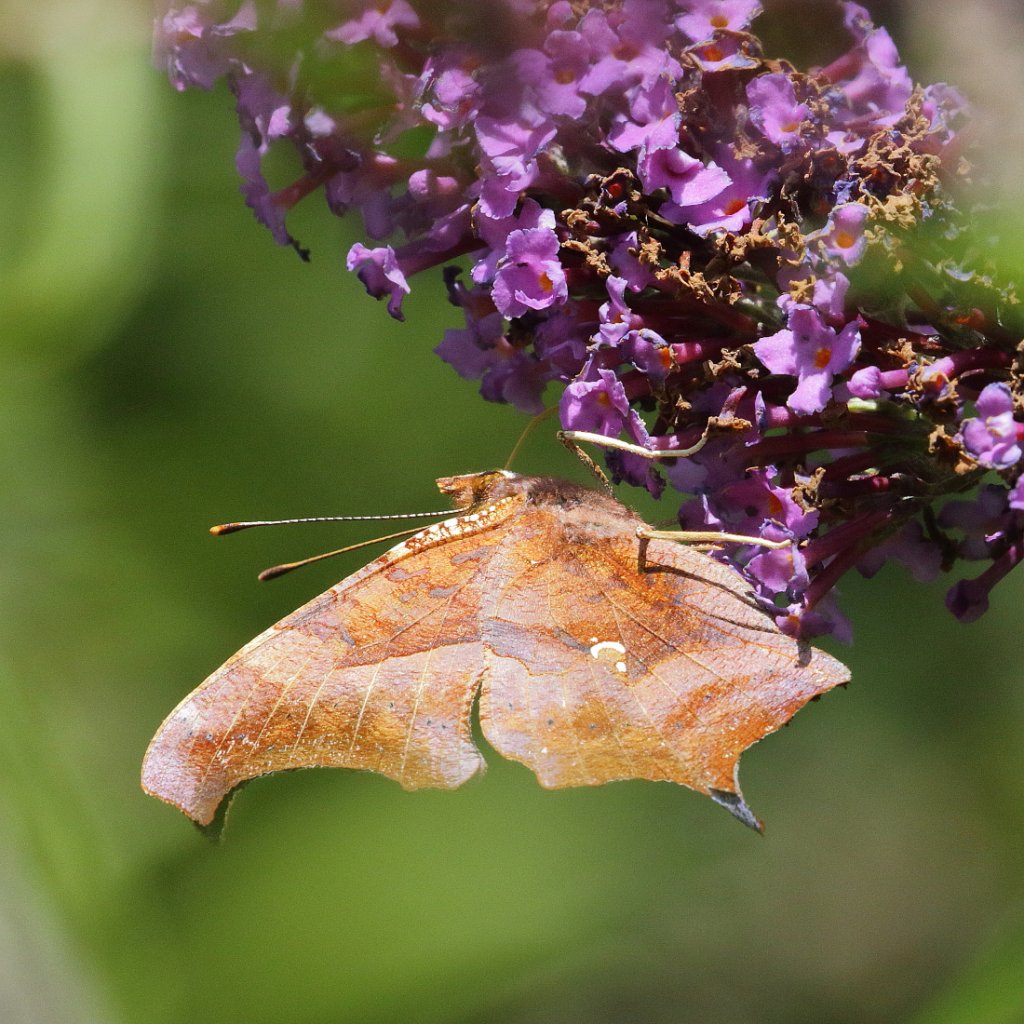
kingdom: Animalia
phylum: Arthropoda
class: Insecta
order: Lepidoptera
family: Nymphalidae
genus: Polygonia
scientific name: Polygonia interrogationis
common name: Question Mark
